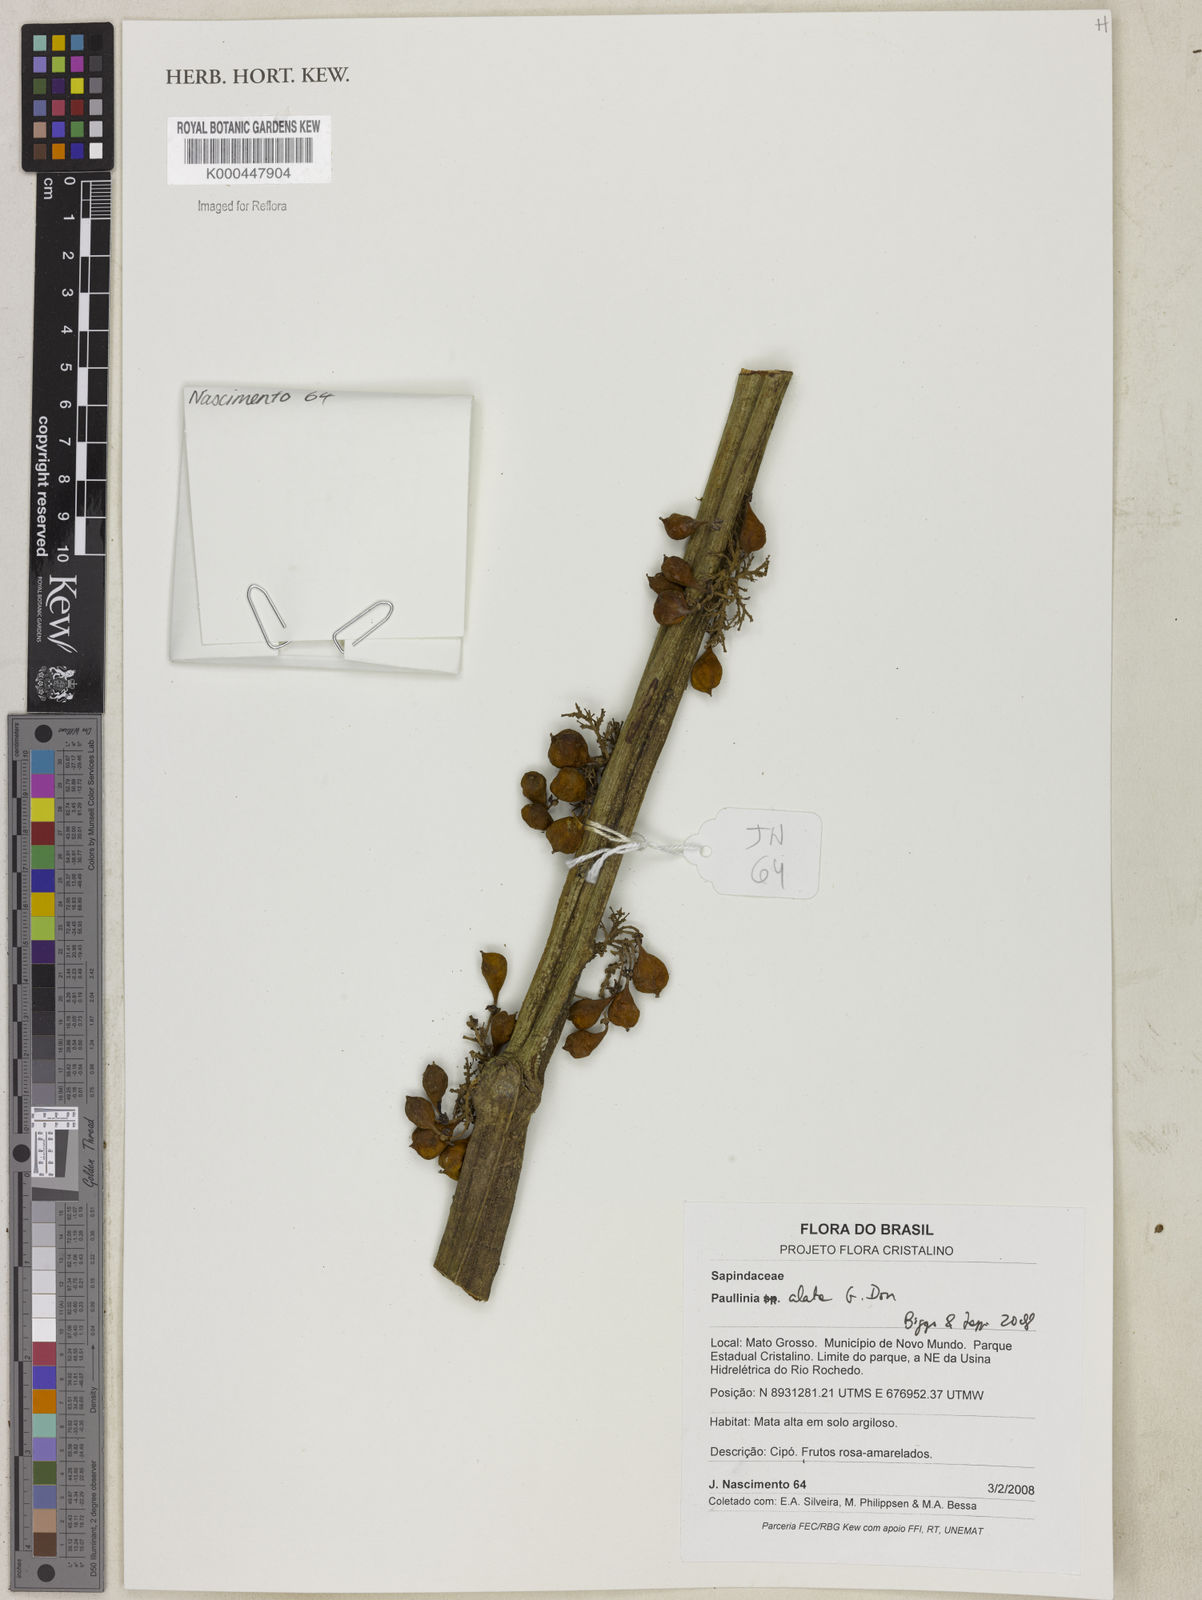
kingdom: Plantae
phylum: Tracheophyta
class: Magnoliopsida
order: Sapindales
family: Sapindaceae
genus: Paullinia
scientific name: Paullinia alata
